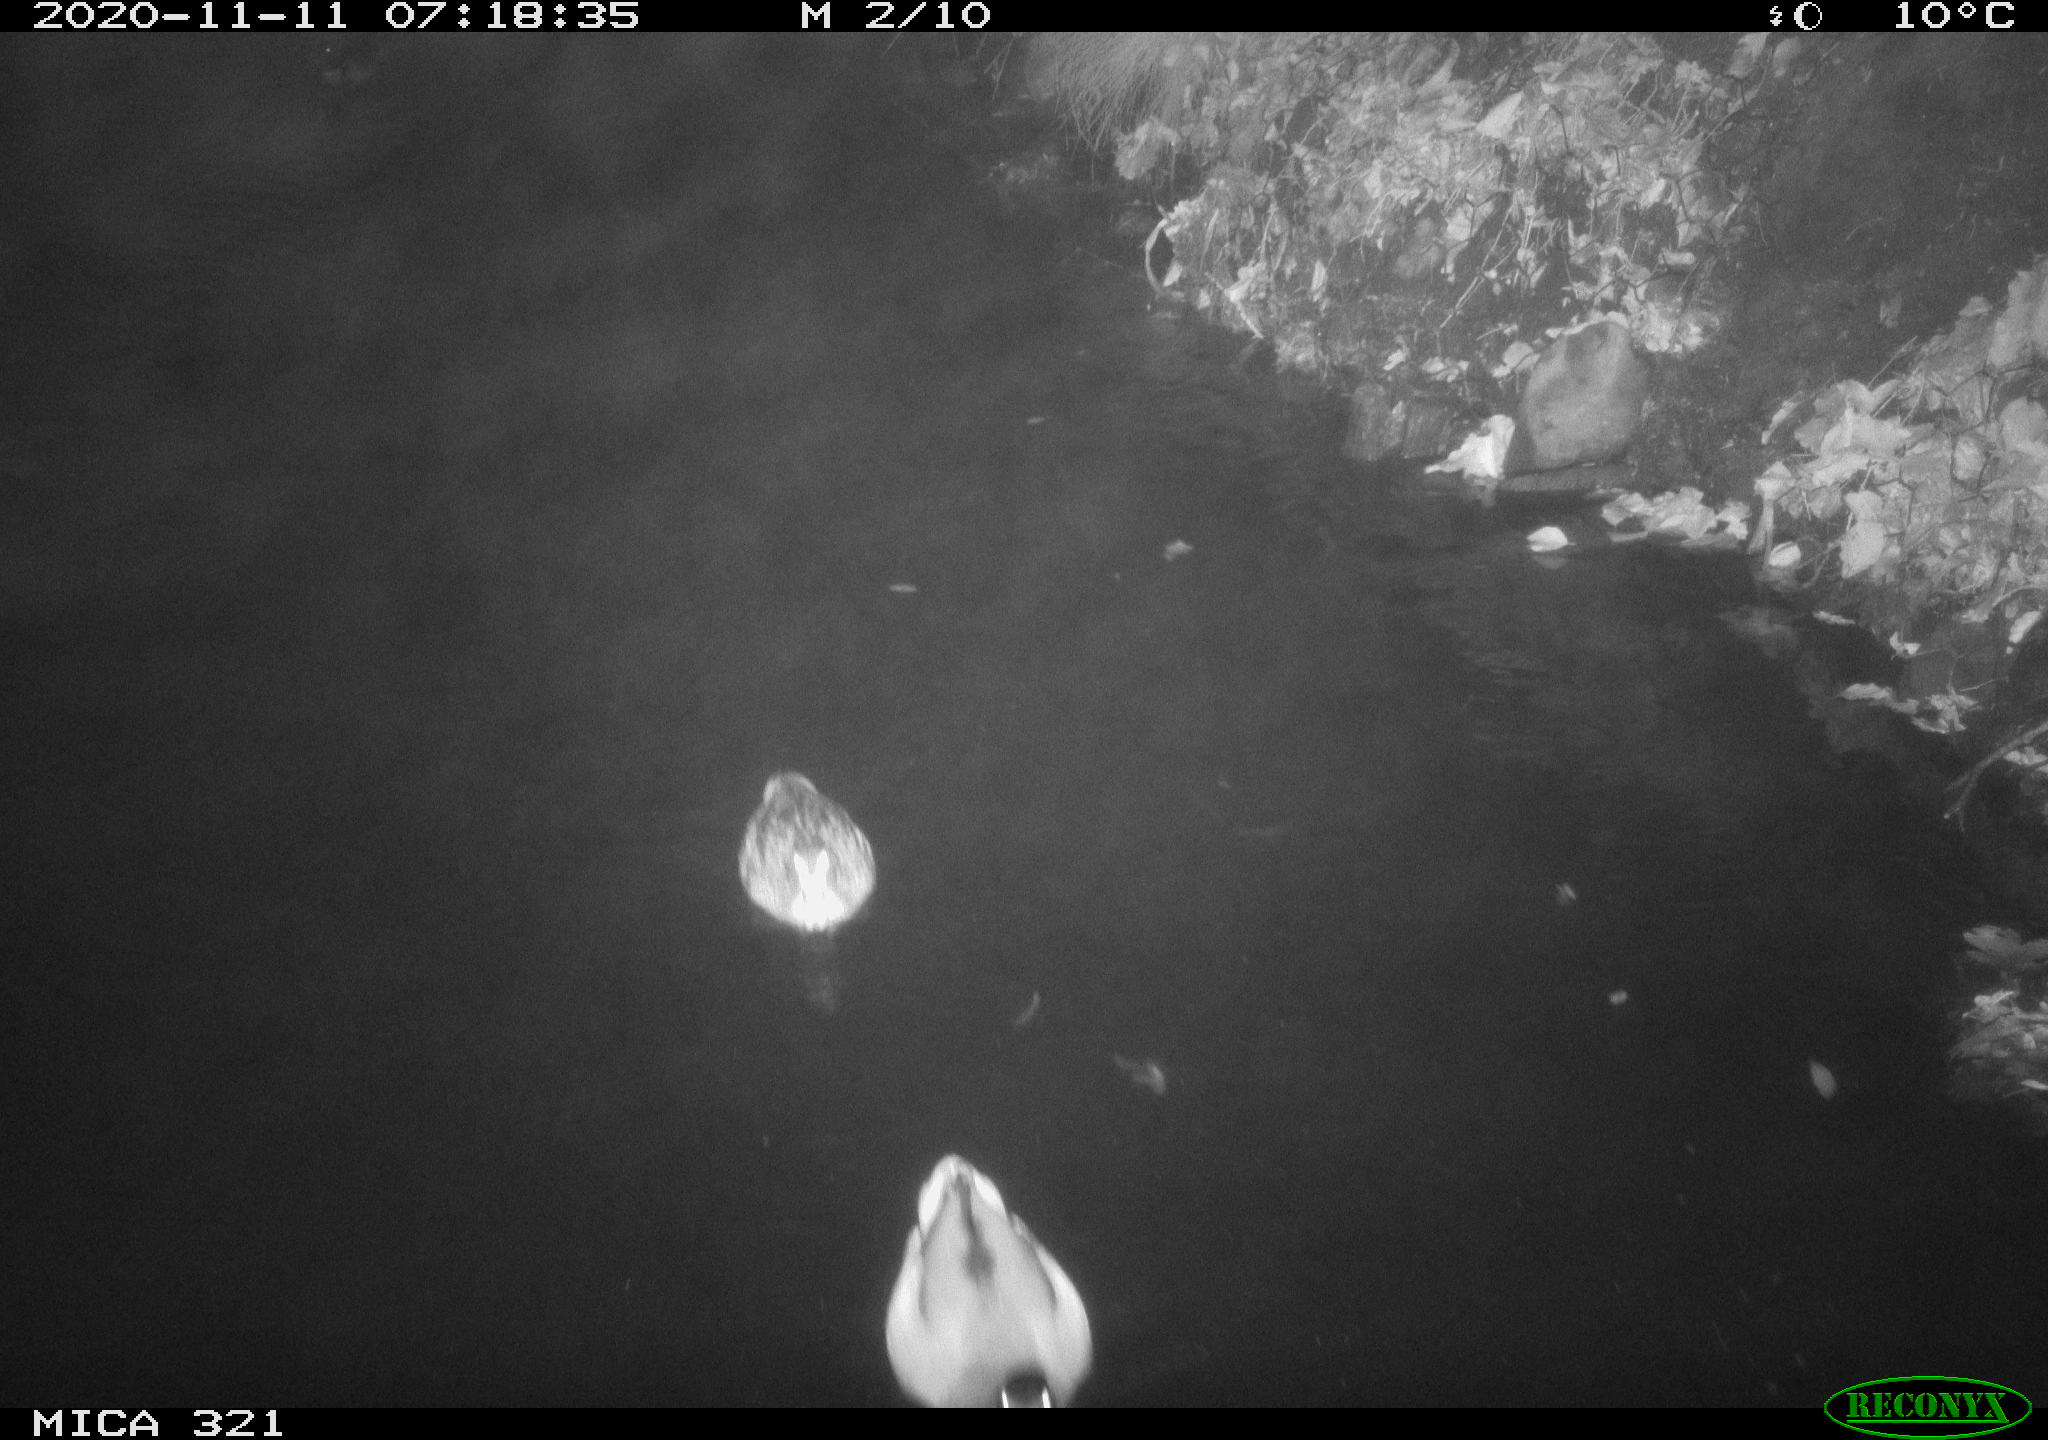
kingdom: Animalia
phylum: Chordata
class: Aves
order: Anseriformes
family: Anatidae
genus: Anas
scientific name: Anas platyrhynchos
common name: Mallard
